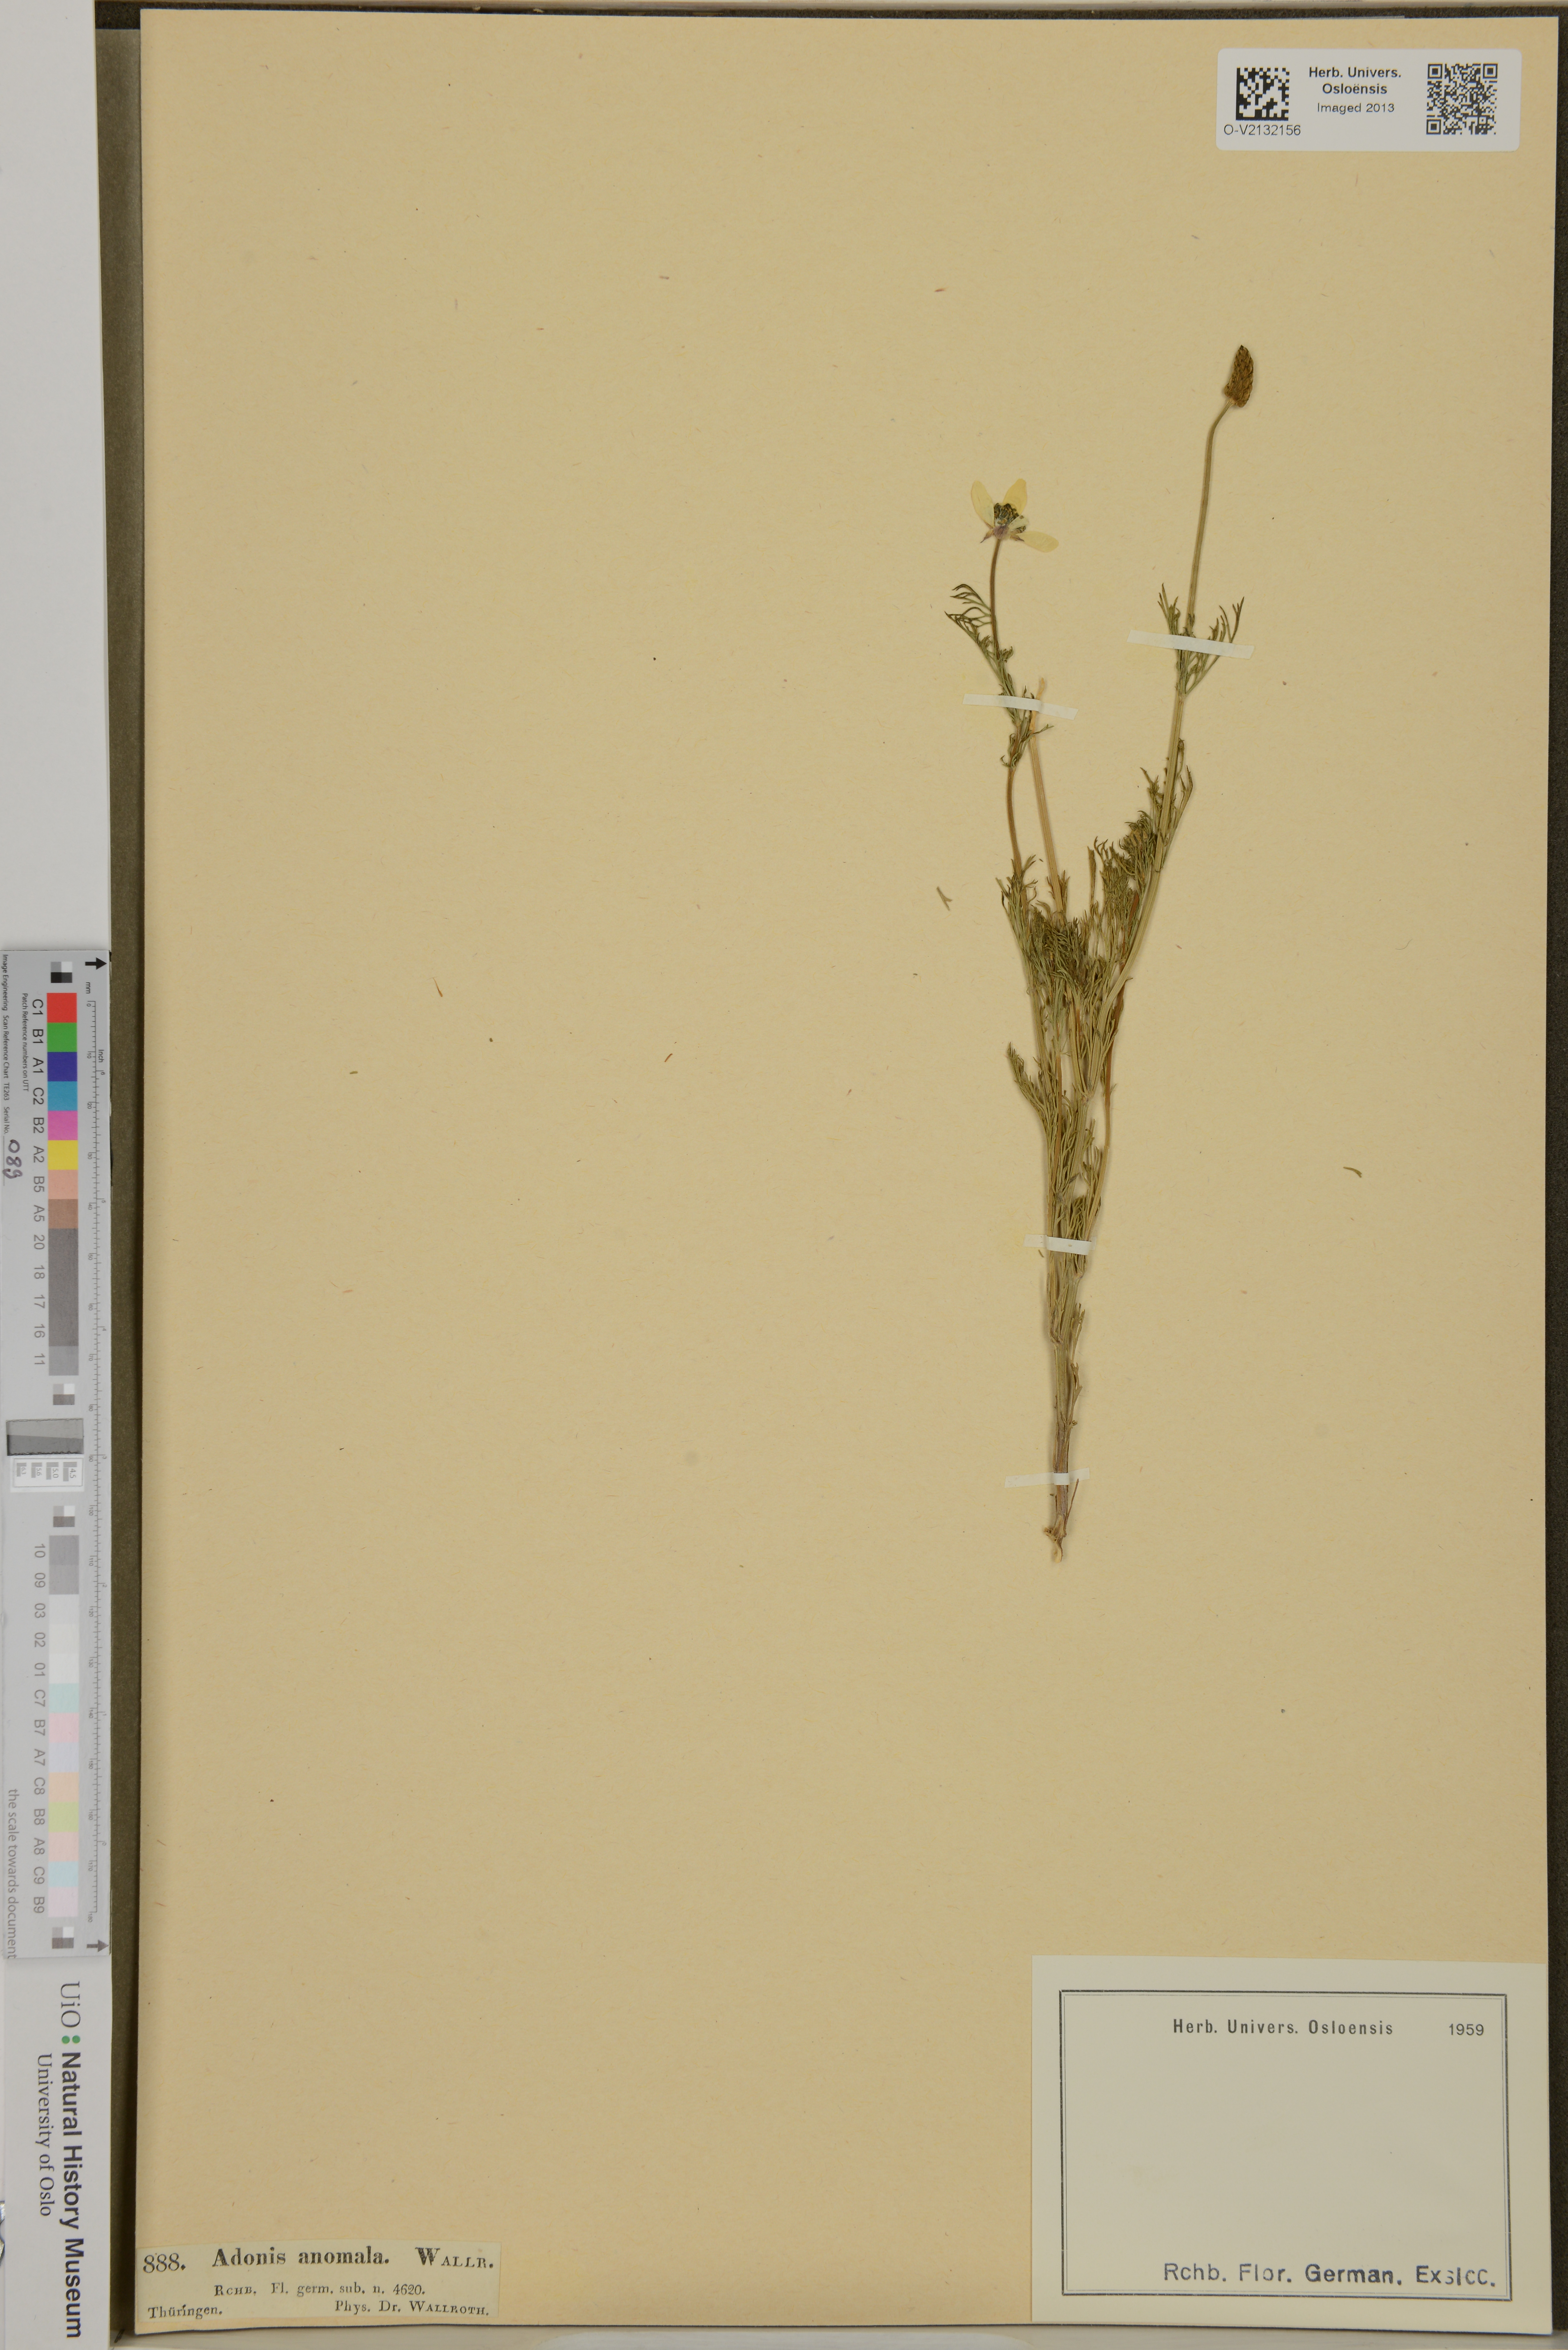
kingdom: Plantae
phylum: Tracheophyta
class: Magnoliopsida
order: Ranunculales
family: Ranunculaceae
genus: Adonis
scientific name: Adonis flammea
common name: Large pheasant's-eye
